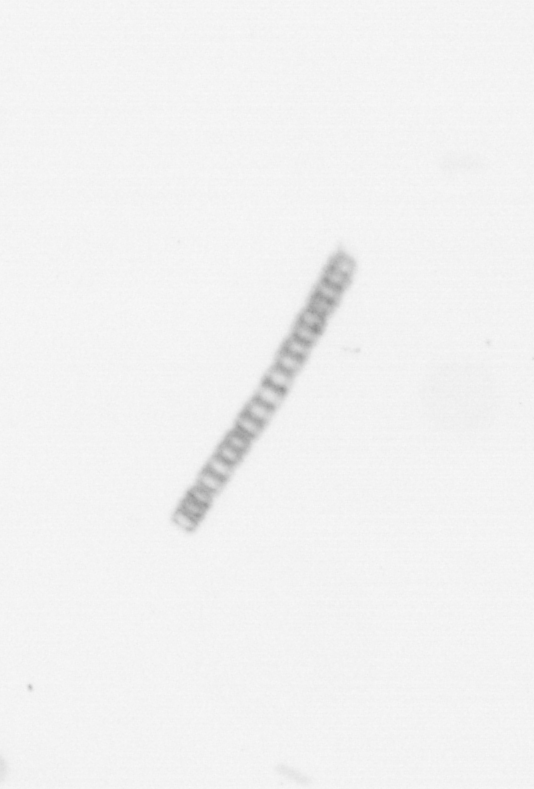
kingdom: Chromista
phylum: Ochrophyta
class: Bacillariophyceae
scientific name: Bacillariophyceae
